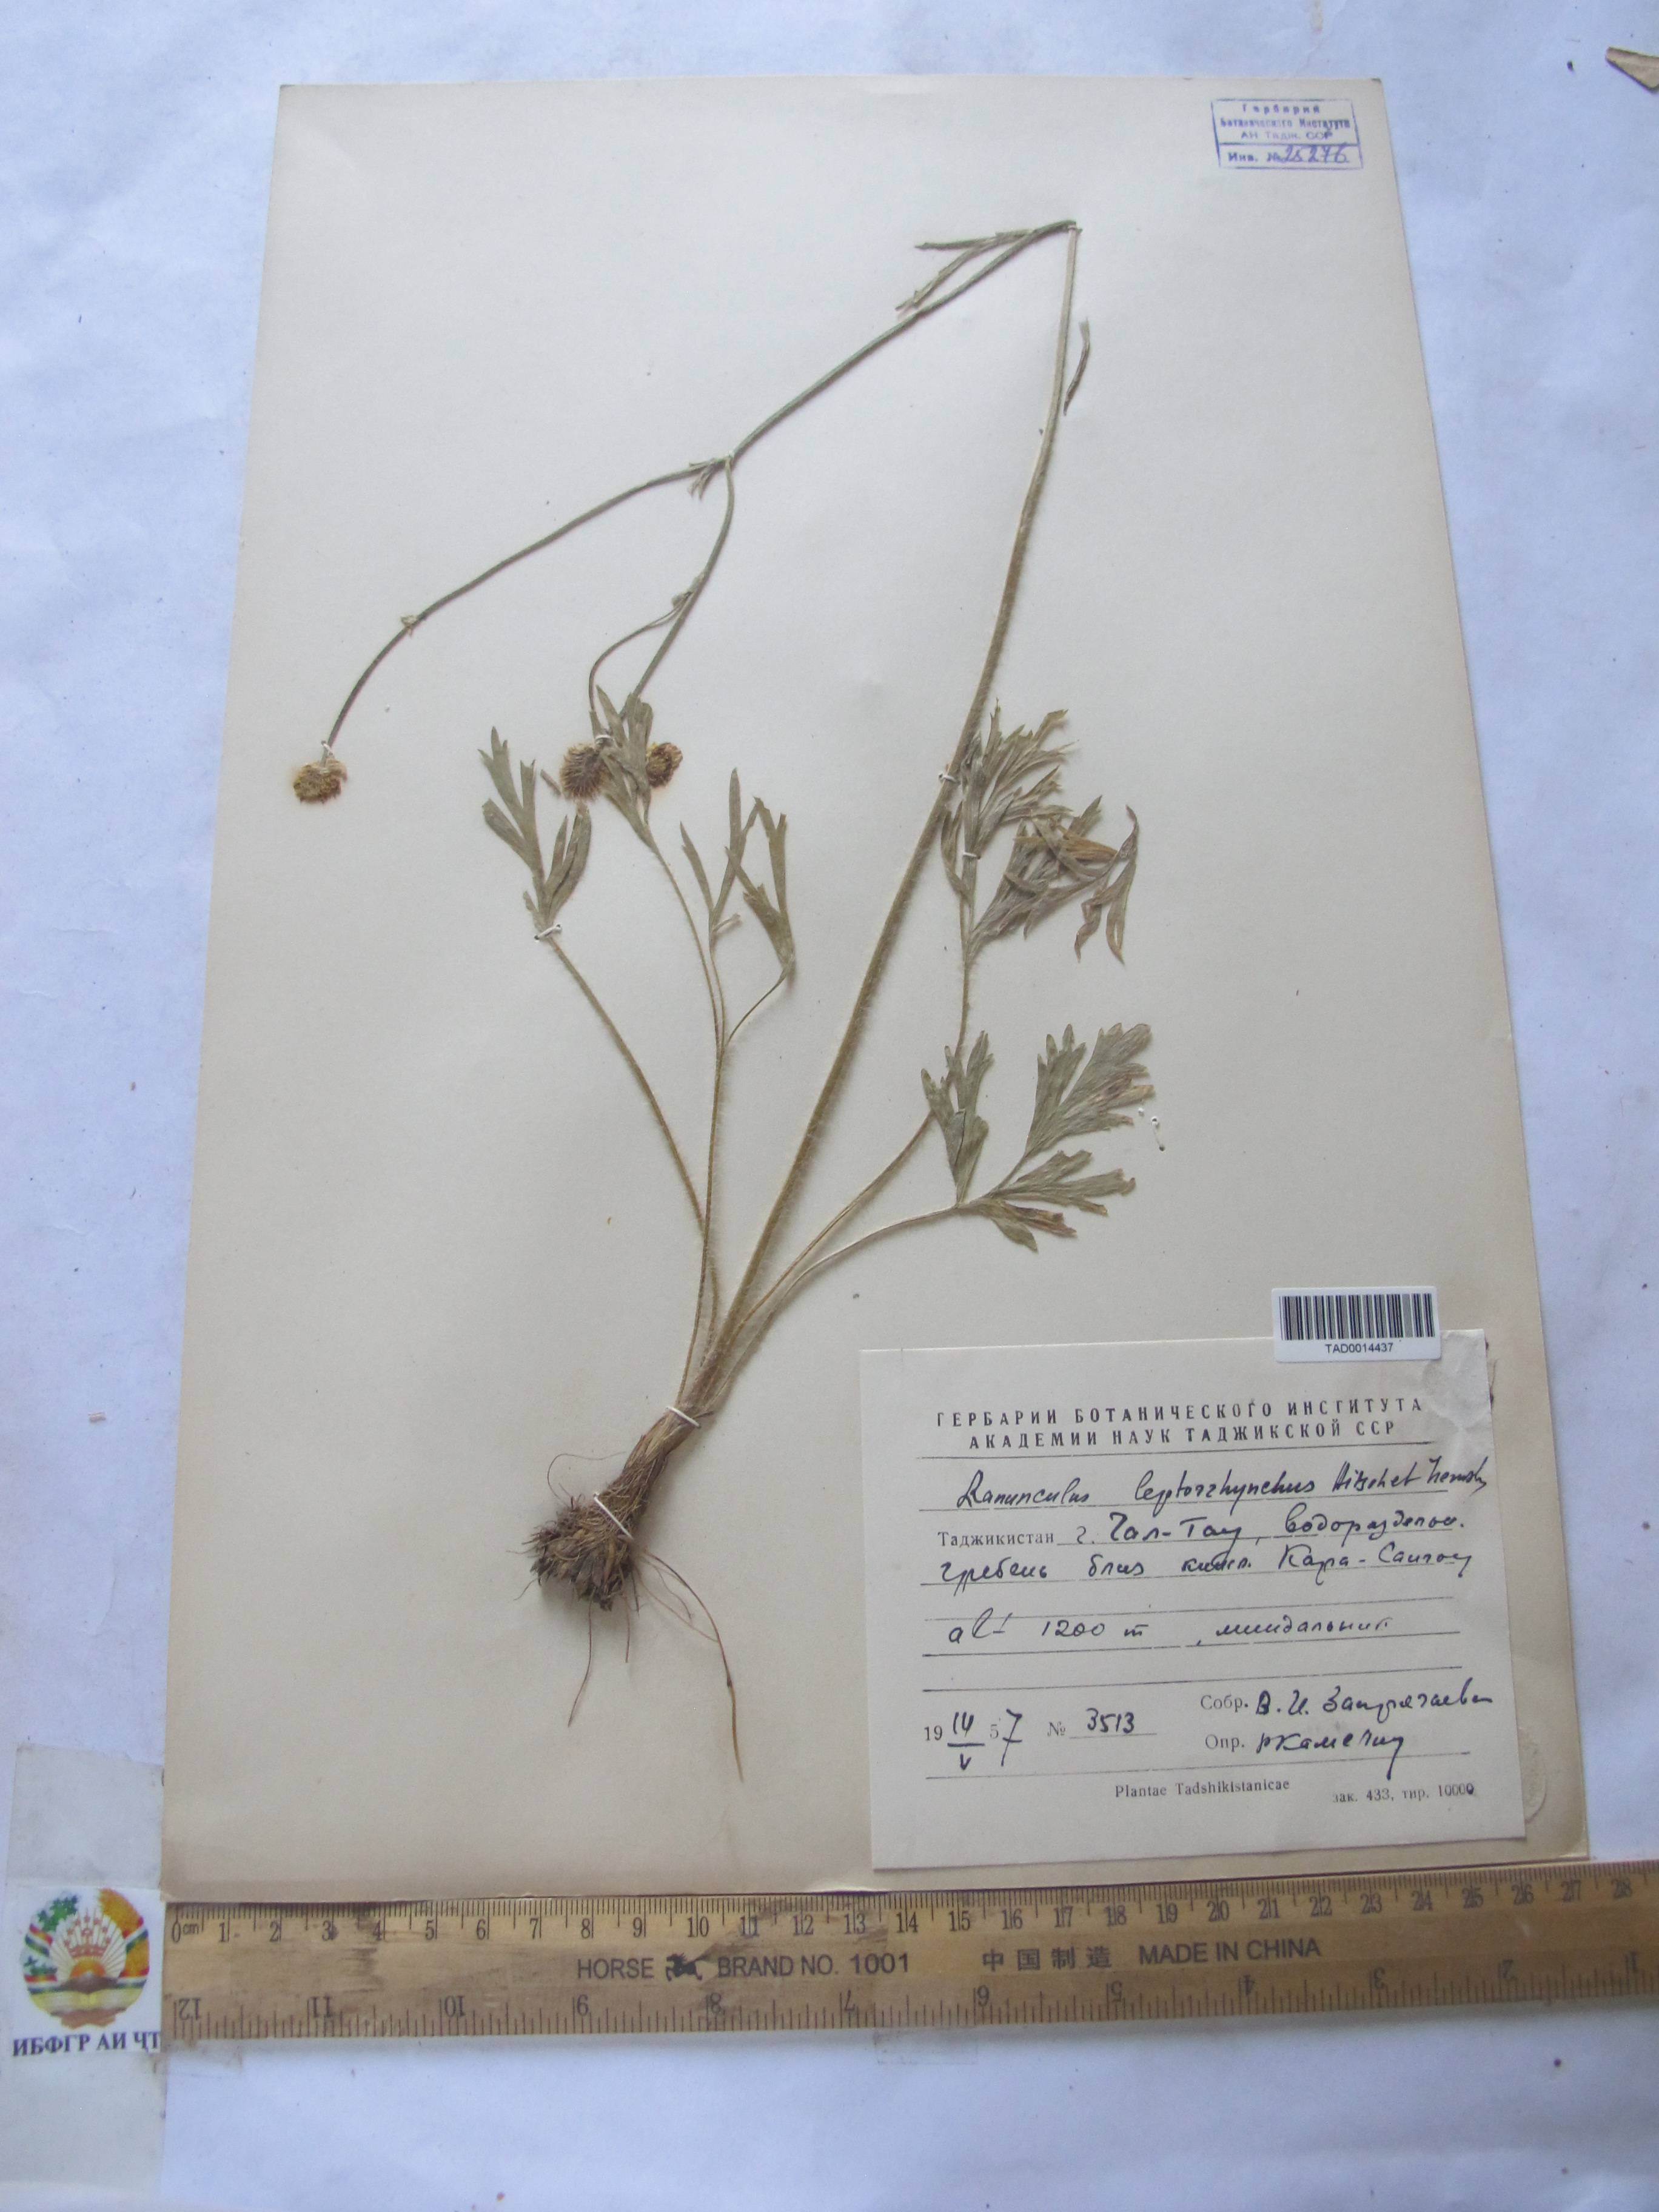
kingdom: Plantae
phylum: Tracheophyta
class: Magnoliopsida
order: Ranunculales
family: Ranunculaceae
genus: Ranunculus
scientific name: Ranunculus leptorrhynchus
